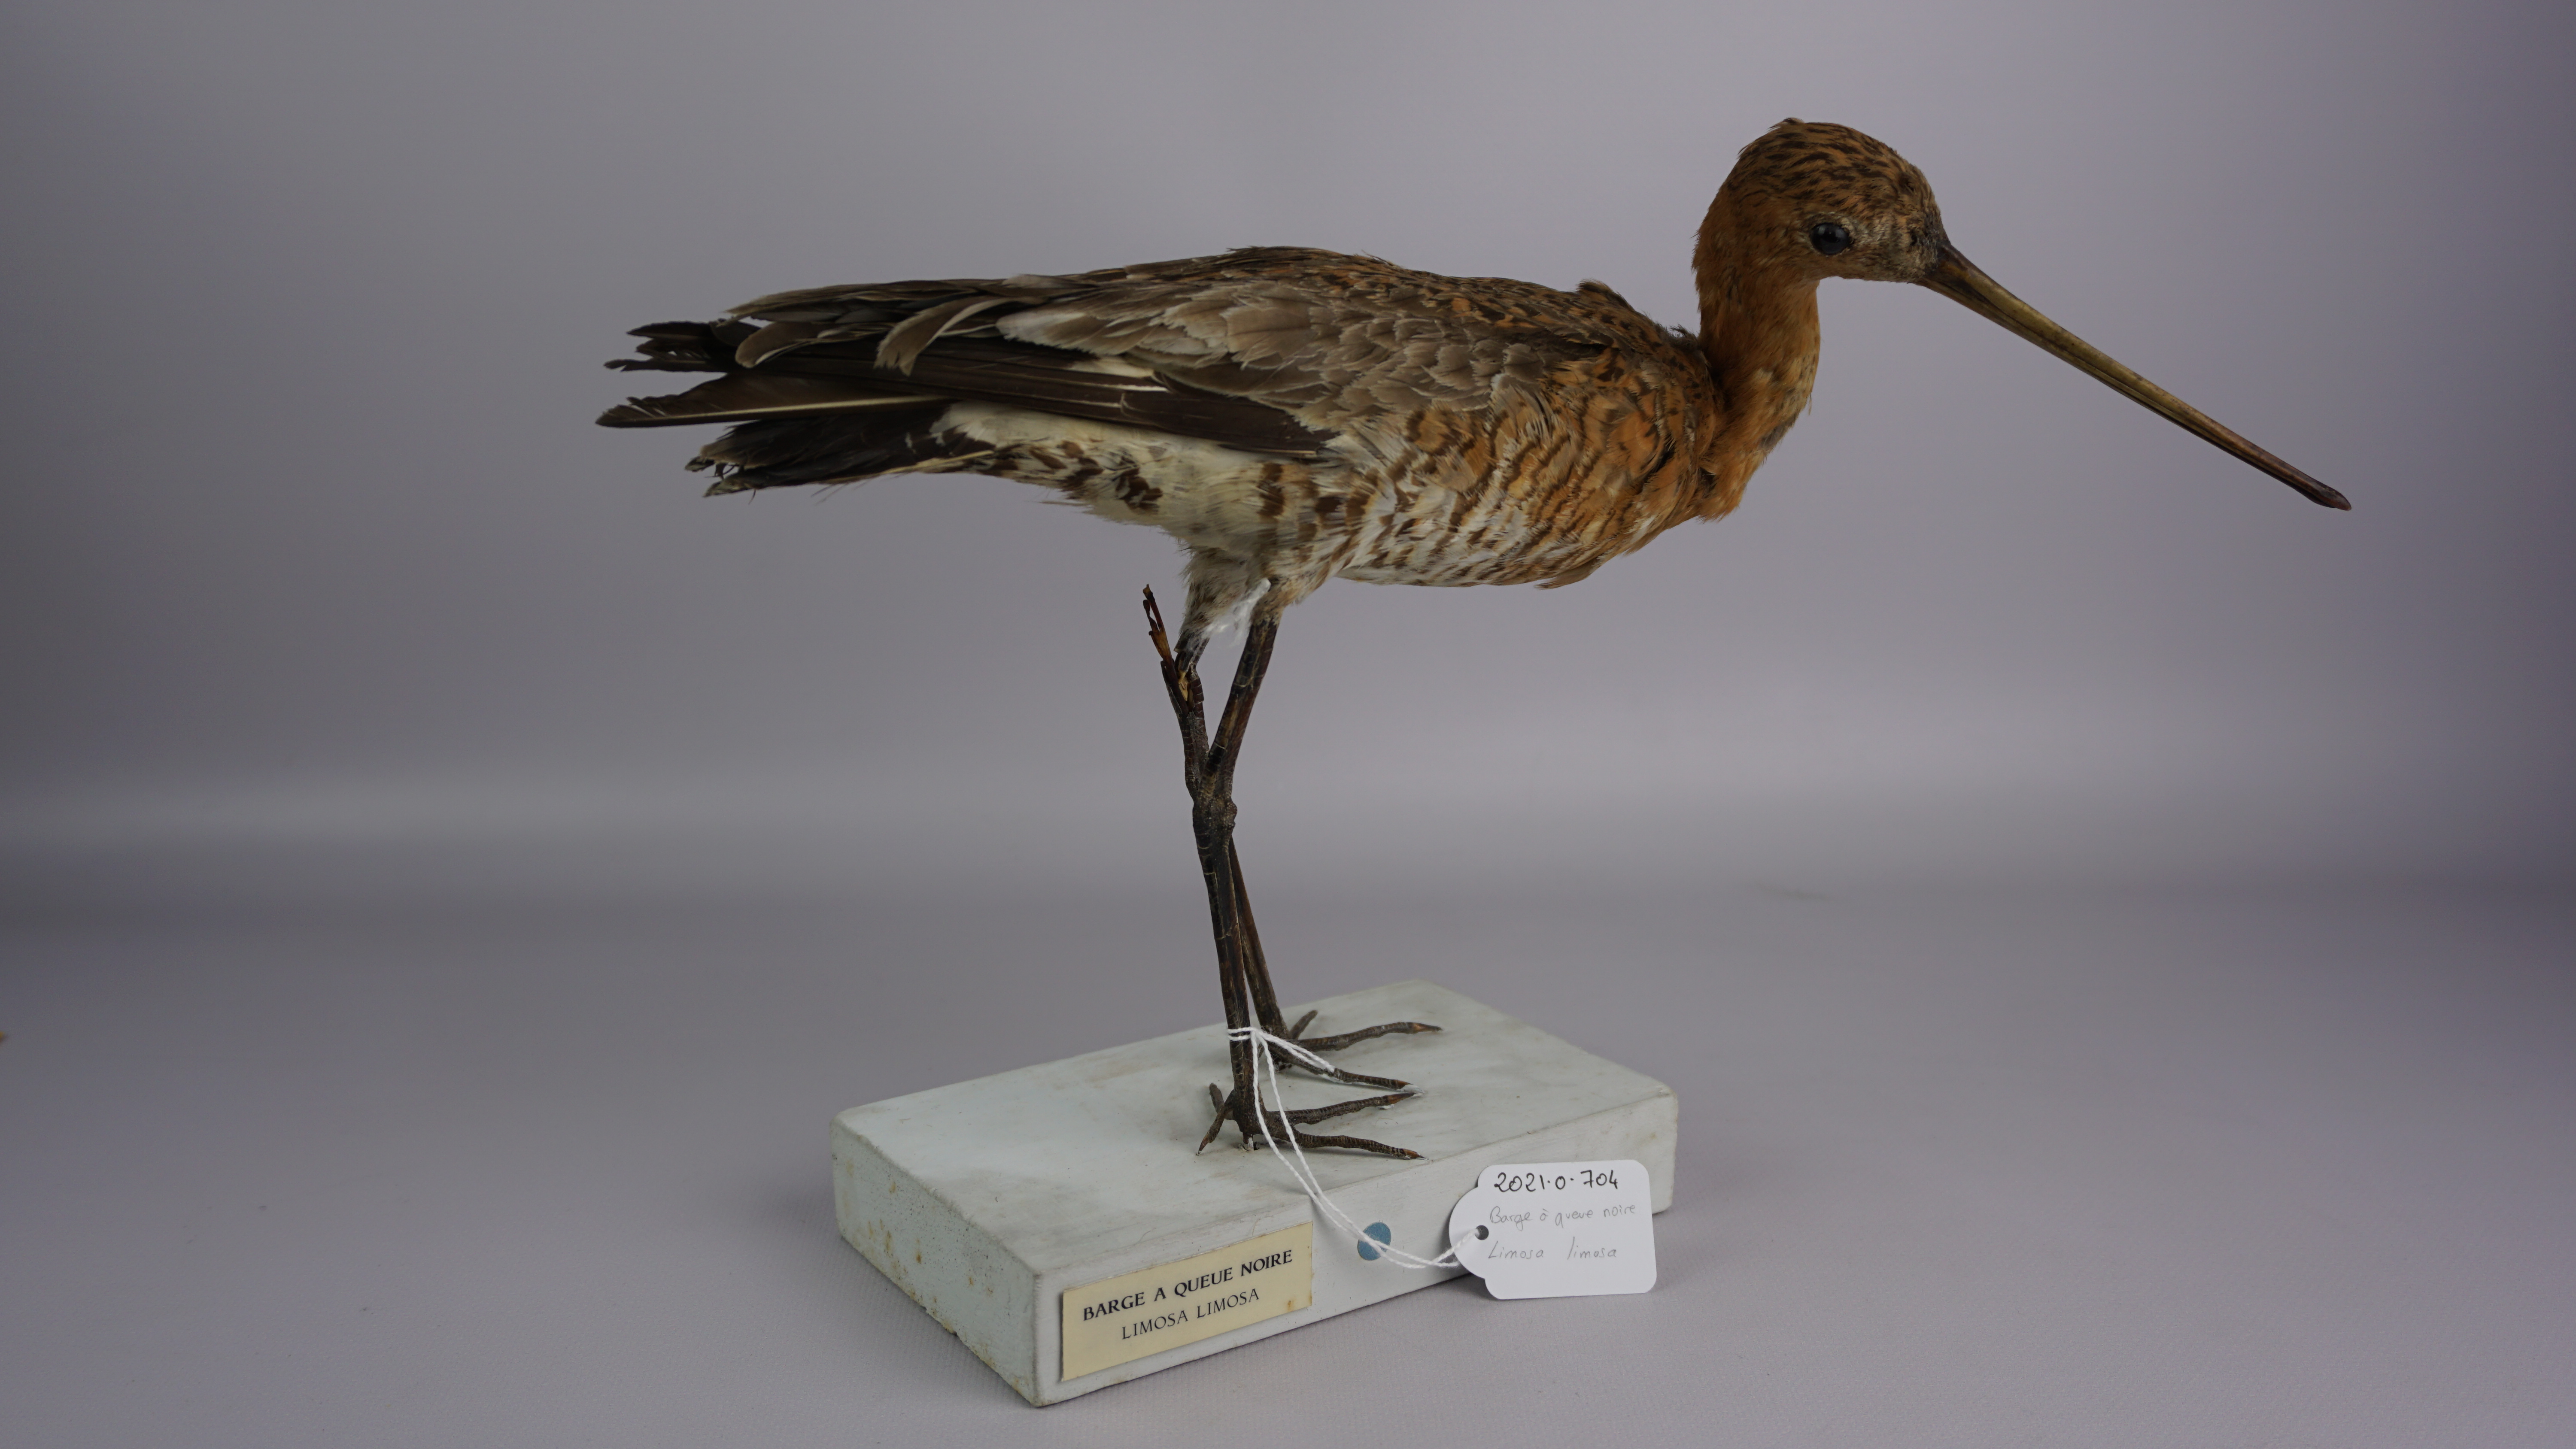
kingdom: Animalia
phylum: Chordata
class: Aves
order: Charadriiformes
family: Scolopacidae
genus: Limosa
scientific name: Limosa limosa
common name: Black-tailed godwit
